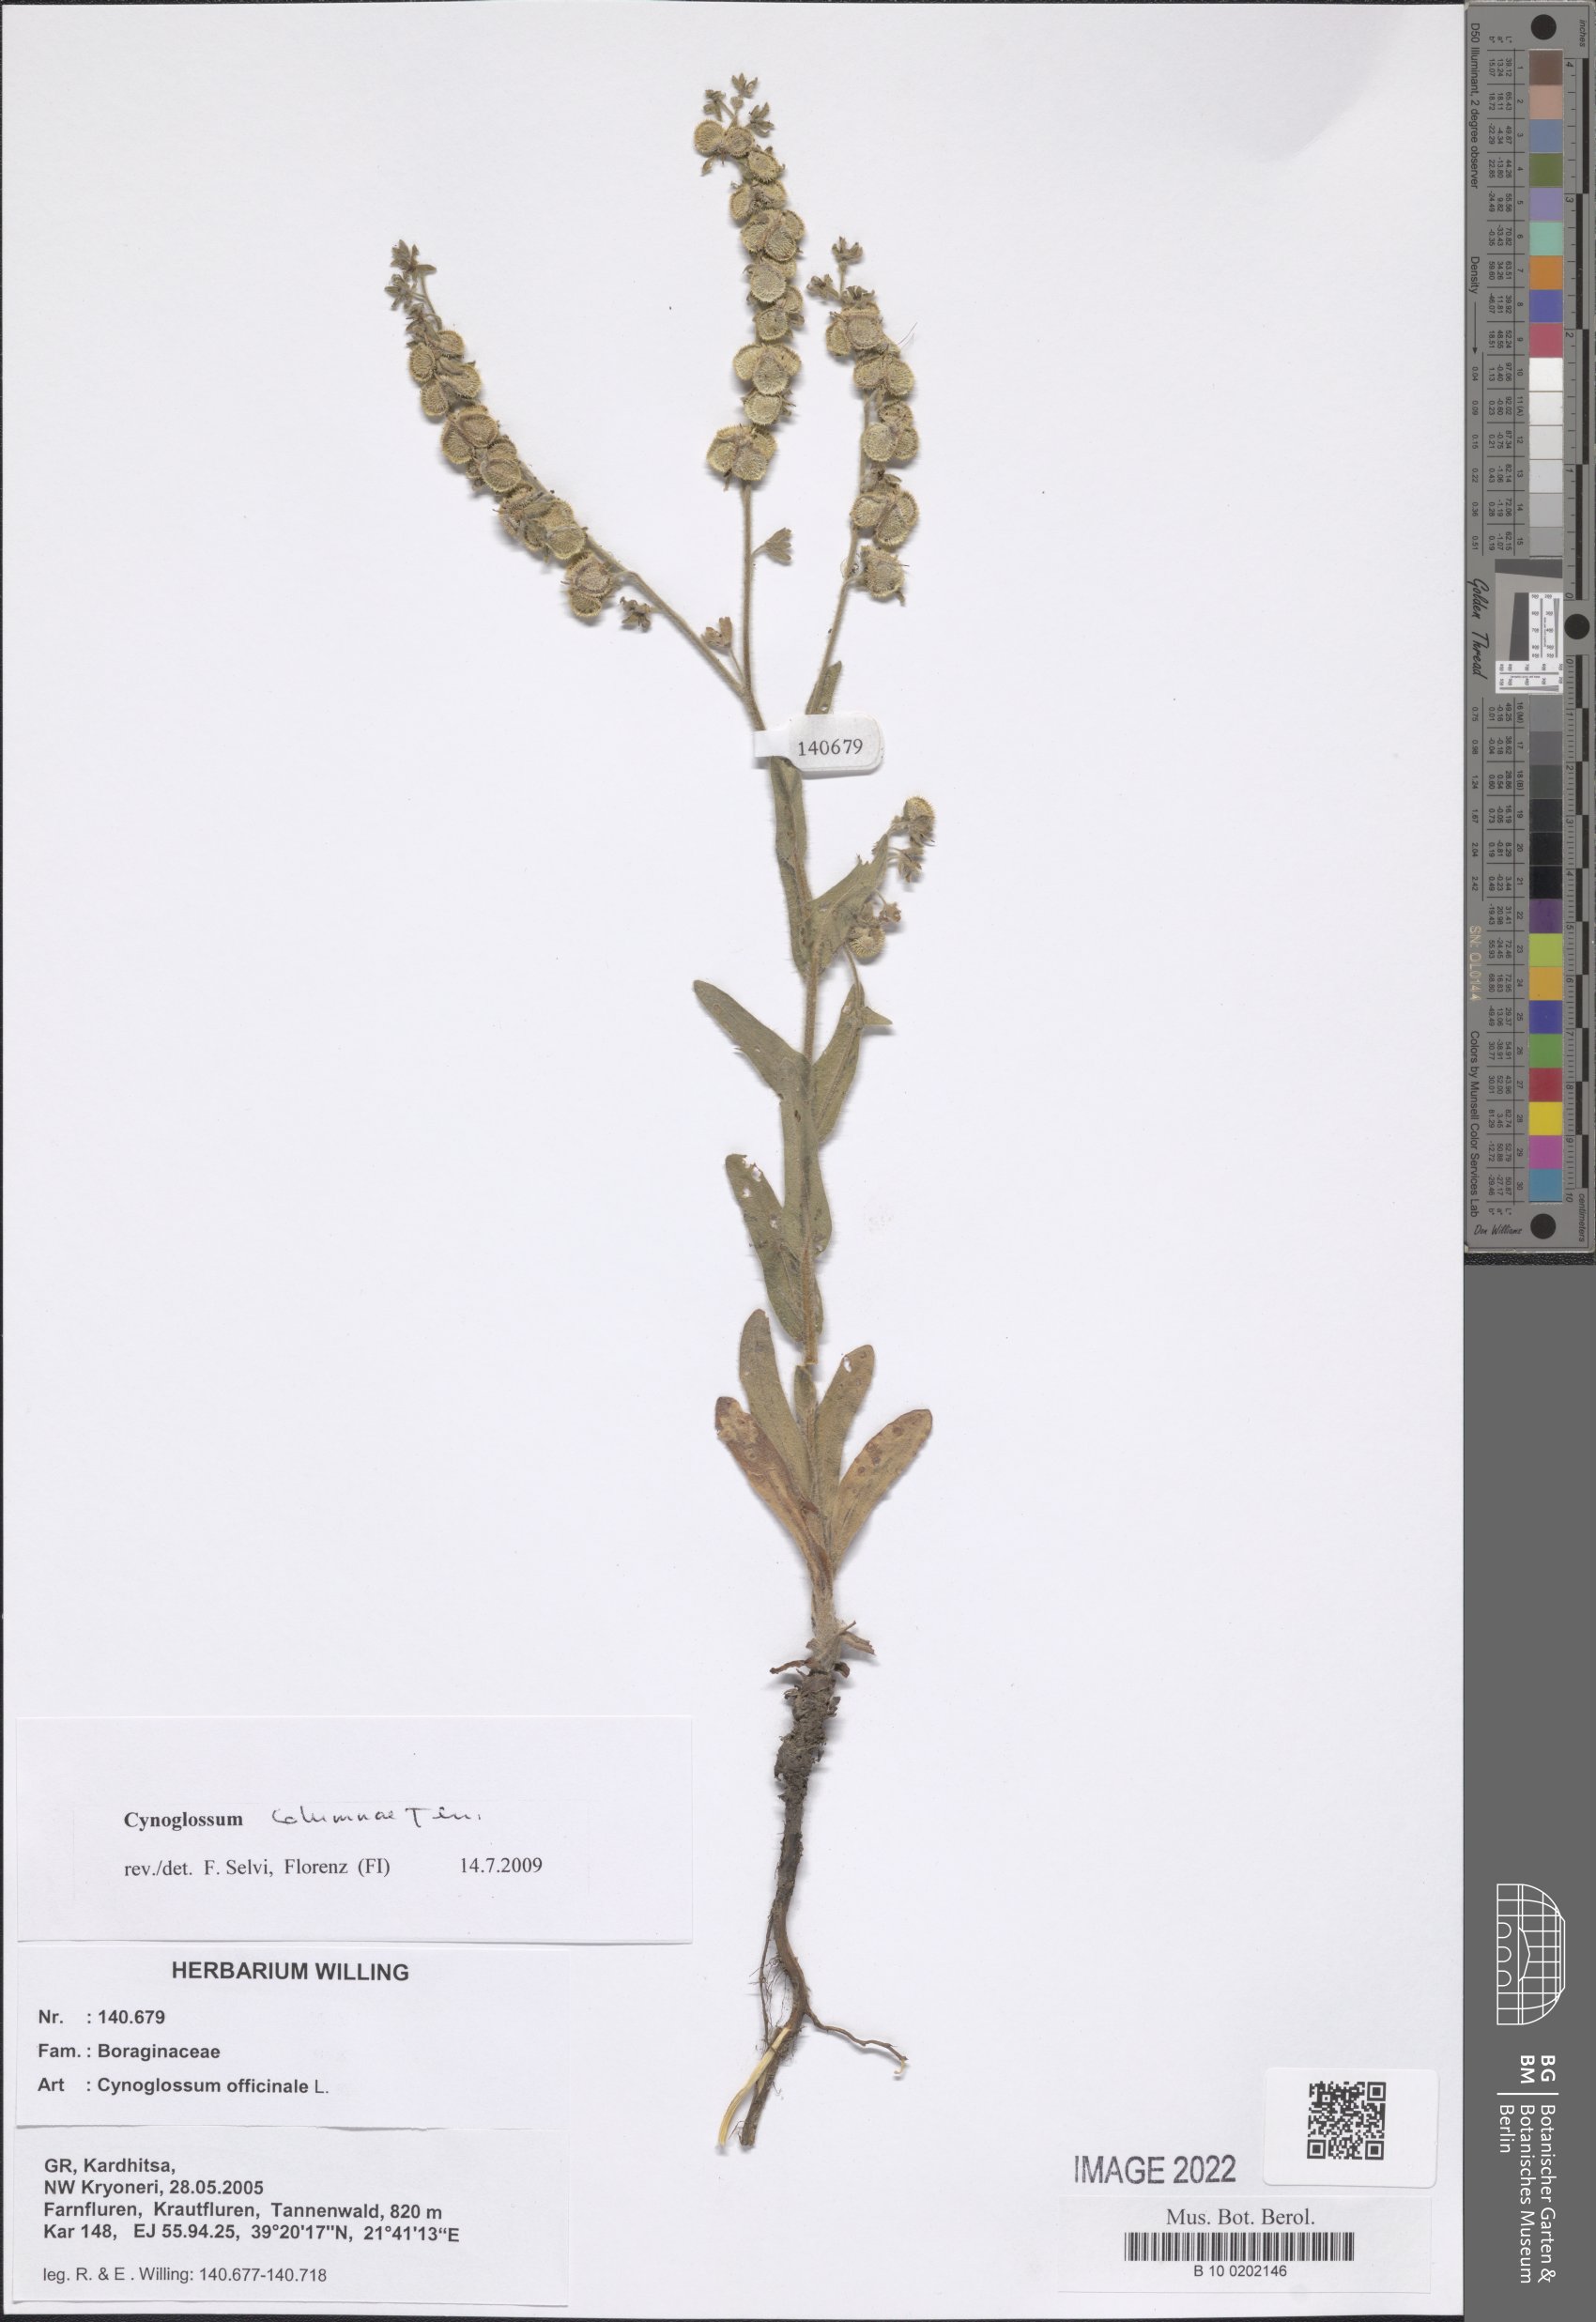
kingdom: Plantae
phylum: Tracheophyta
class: Magnoliopsida
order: Boraginales
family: Boraginaceae
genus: Rindera
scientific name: Rindera columnae
